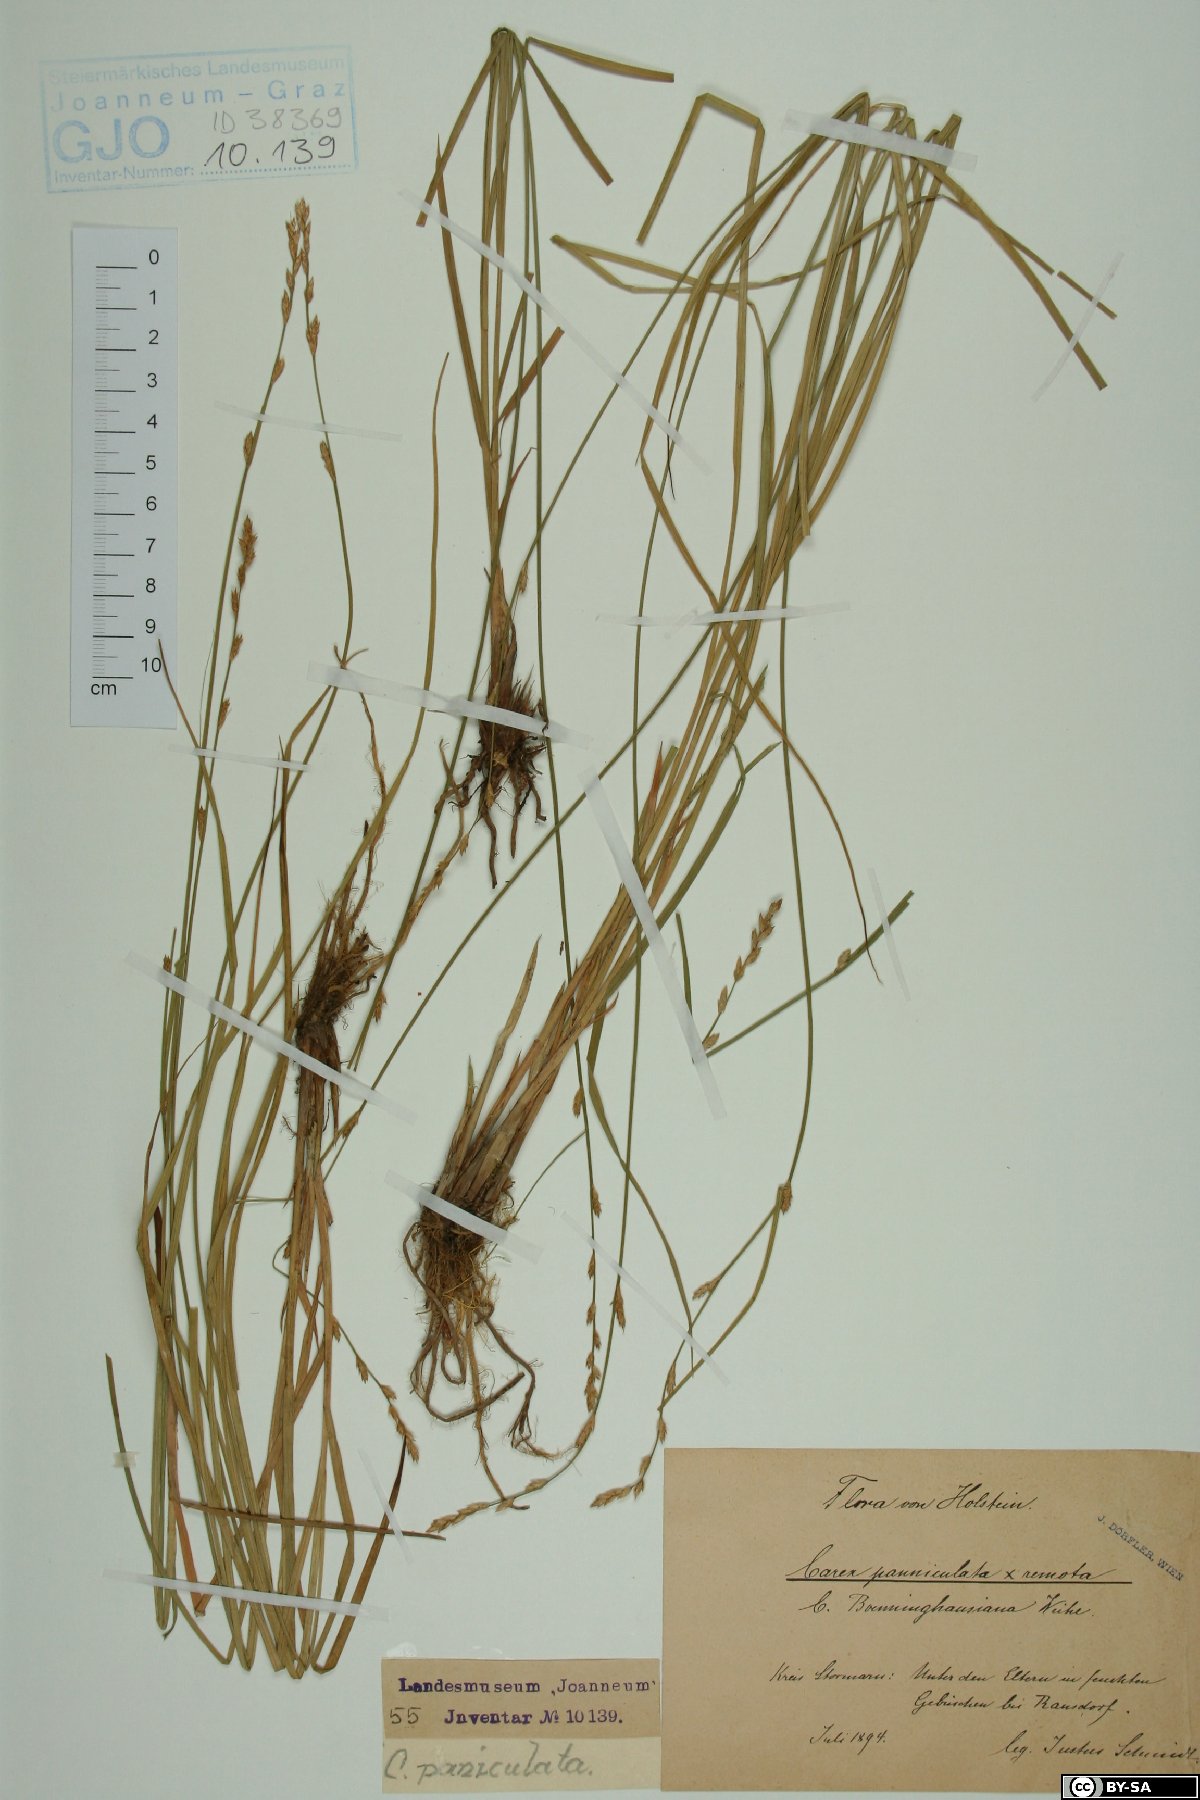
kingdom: Plantae
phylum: Tracheophyta
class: Liliopsida
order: Poales
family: Cyperaceae
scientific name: Cyperaceae
